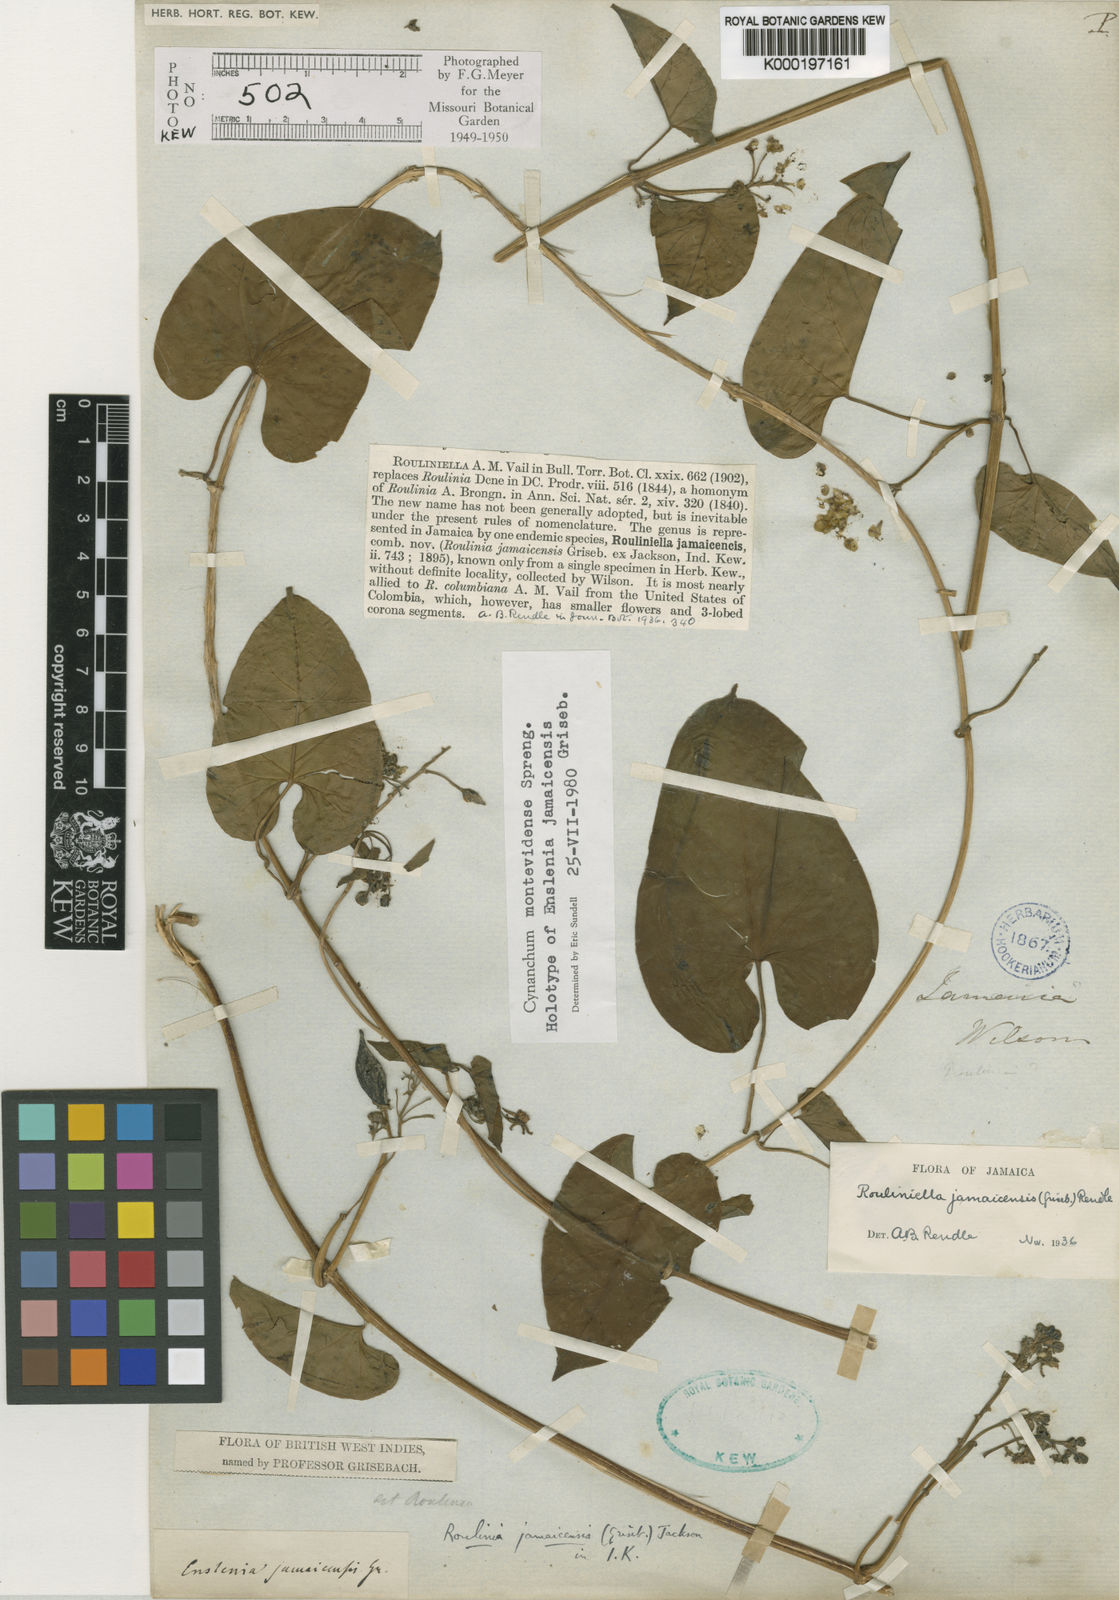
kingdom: Plantae
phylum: Tracheophyta
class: Magnoliopsida
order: Gentianales
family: Apocynaceae
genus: Cynanchum
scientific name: Cynanchum montevidense
